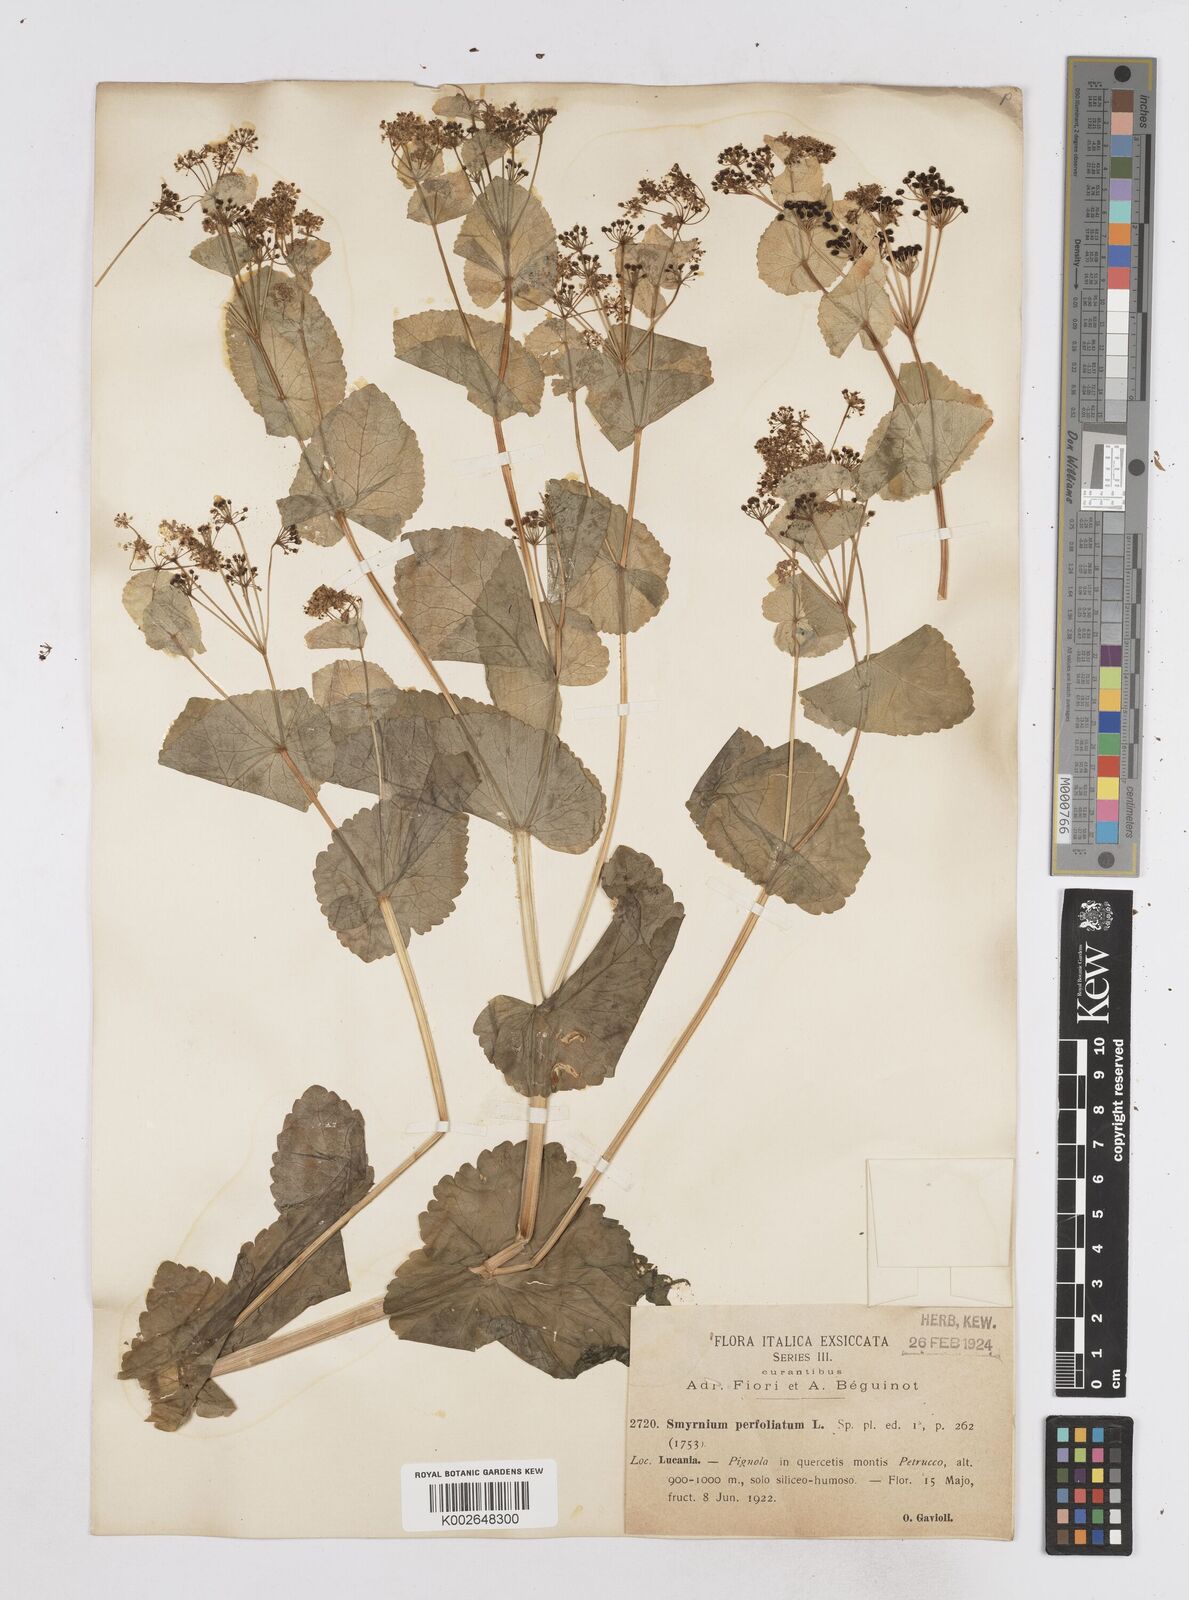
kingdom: Plantae
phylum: Tracheophyta
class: Magnoliopsida
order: Apiales
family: Apiaceae
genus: Smyrnium
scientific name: Smyrnium perfoliatum
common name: Perfoliate alexanders
